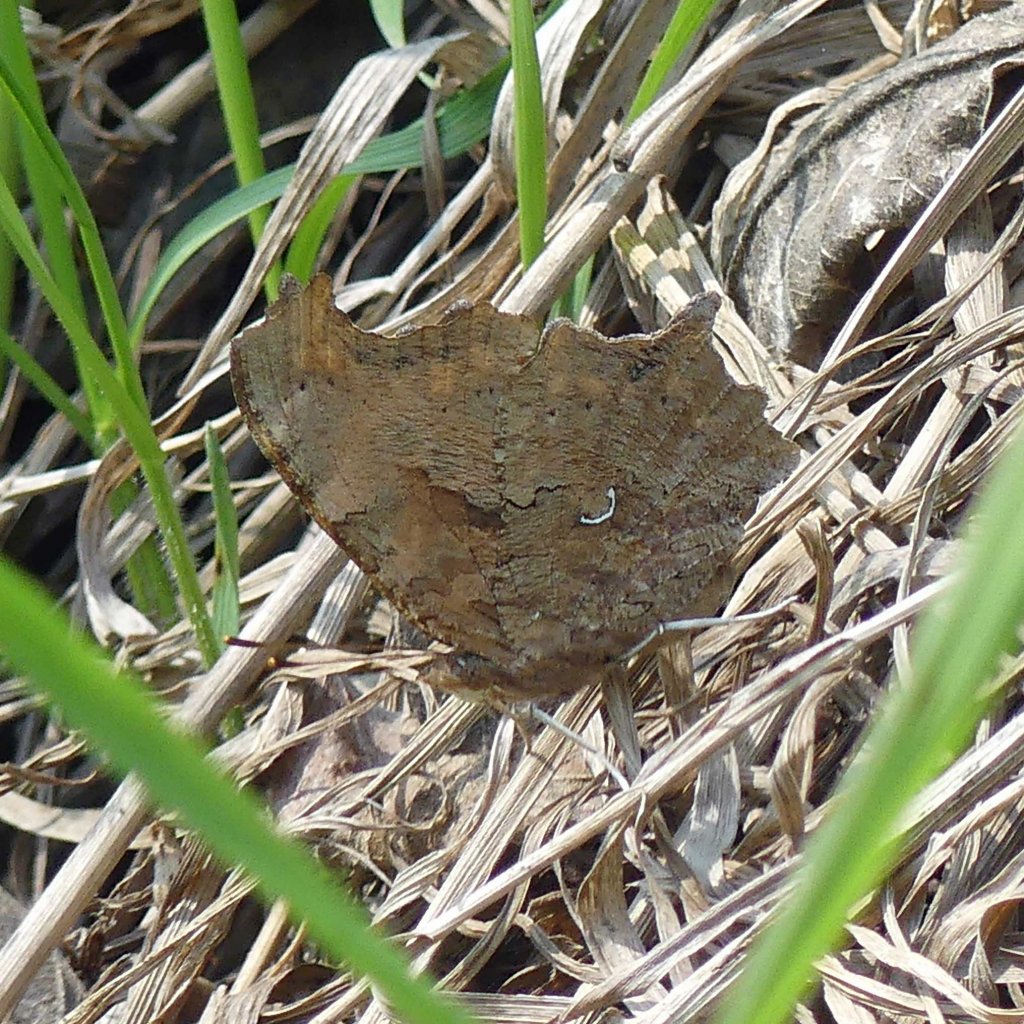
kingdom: Animalia
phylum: Arthropoda
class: Insecta
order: Lepidoptera
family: Nymphalidae
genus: Polygonia
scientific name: Polygonia comma
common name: Eastern Comma
